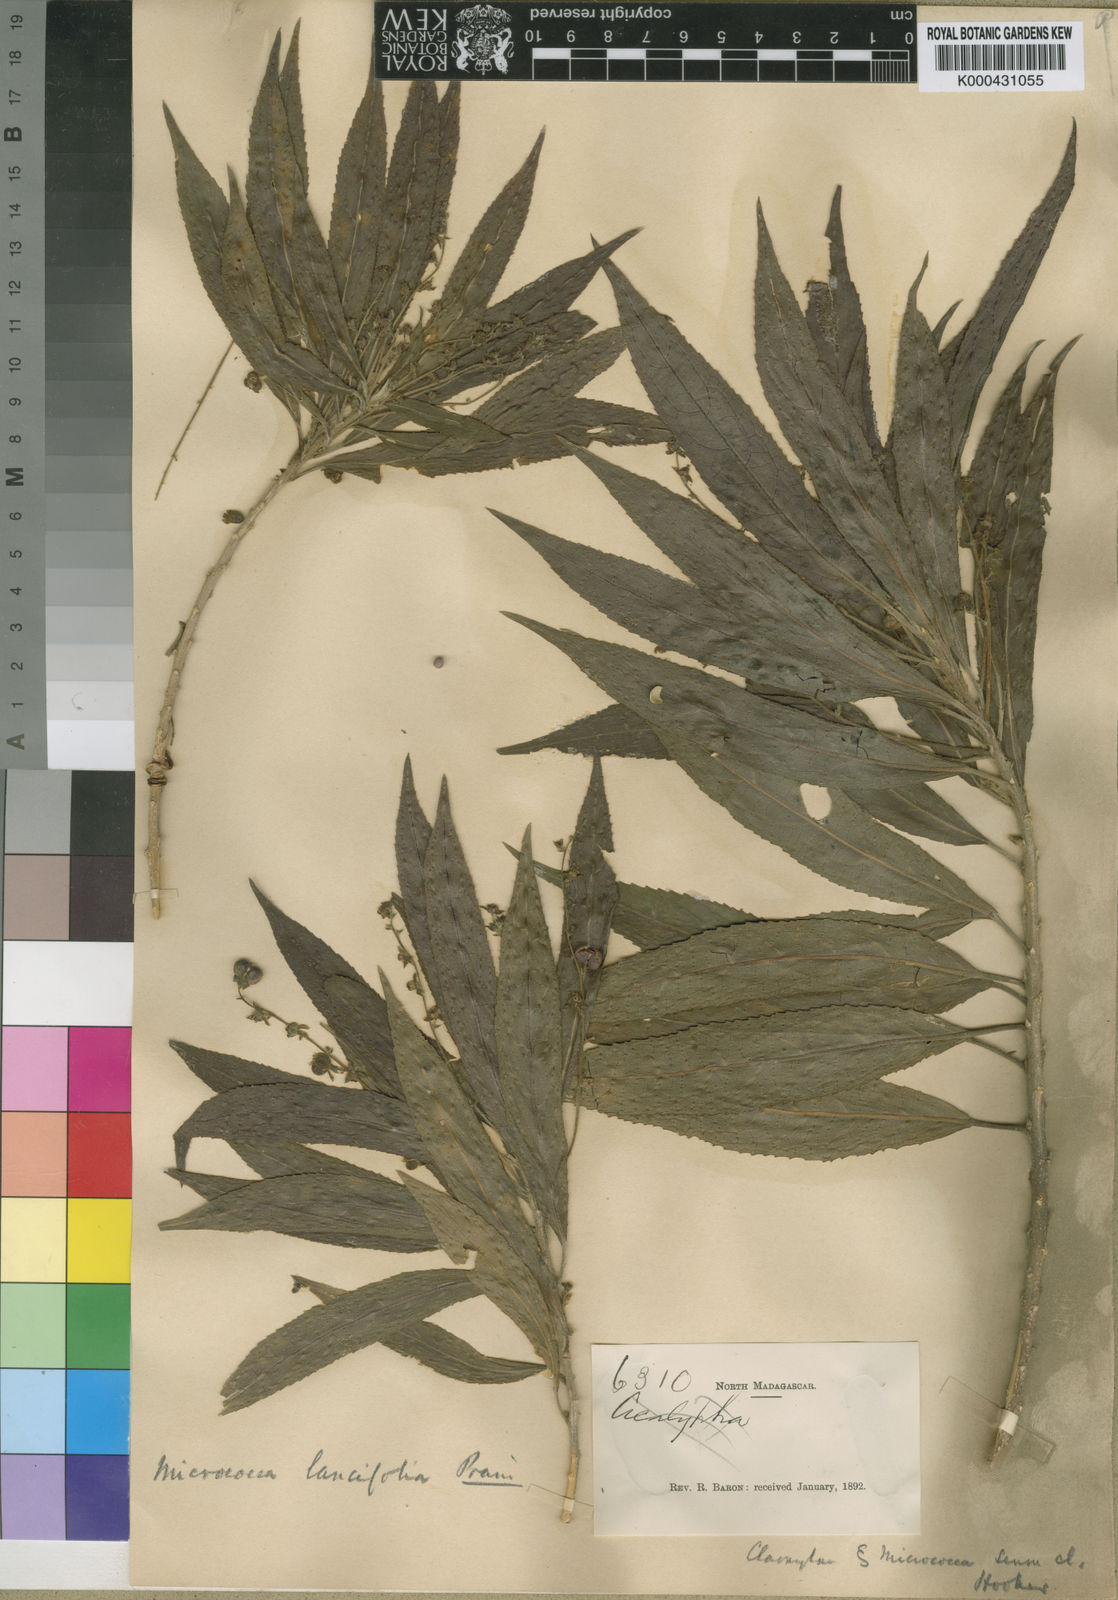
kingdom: Plantae
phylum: Tracheophyta
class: Magnoliopsida
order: Malpighiales
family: Euphorbiaceae
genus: Micrococca
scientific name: Micrococca lancifolia
